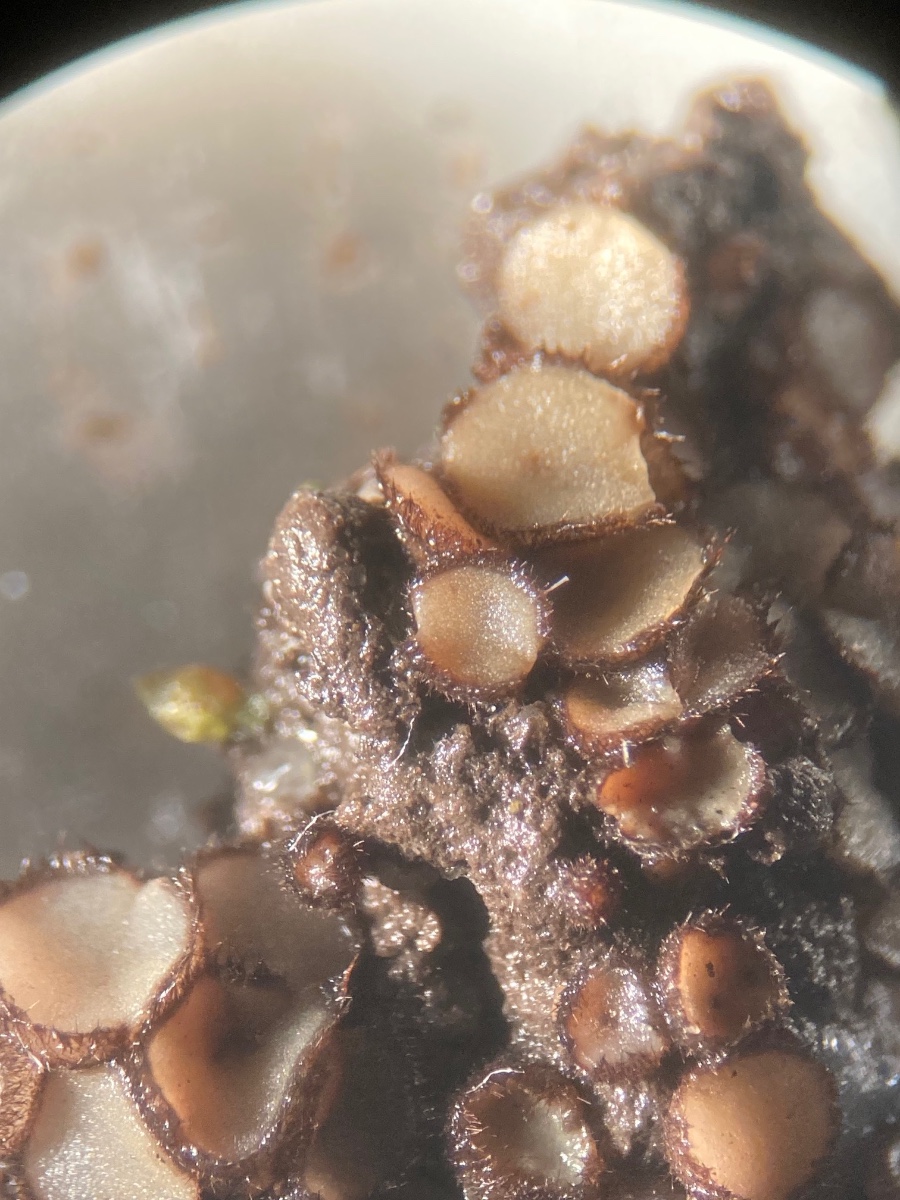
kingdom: Fungi
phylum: Ascomycota
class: Pezizomycetes
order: Pezizales
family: Pyronemataceae
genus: Trichophaea
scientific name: Trichophaea
